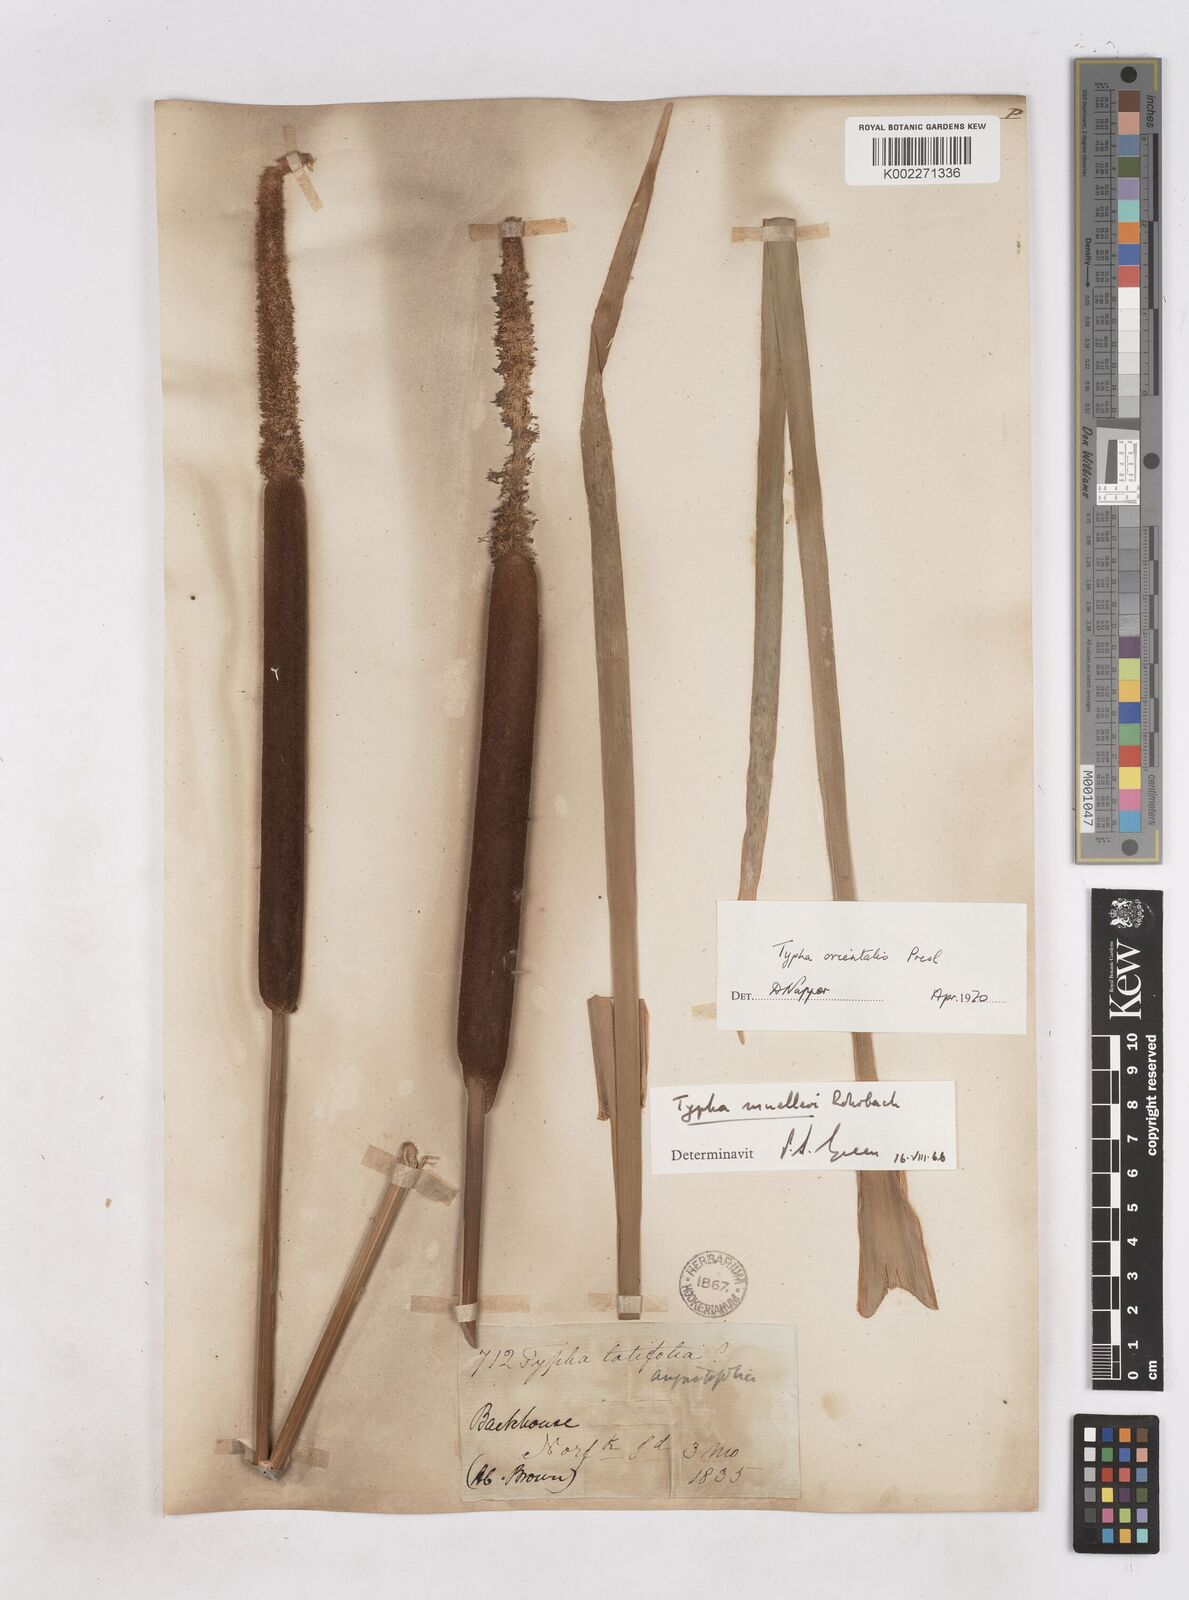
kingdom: Plantae
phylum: Tracheophyta
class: Liliopsida
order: Poales
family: Typhaceae
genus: Typha
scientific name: Typha orientalis
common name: Bullrush
